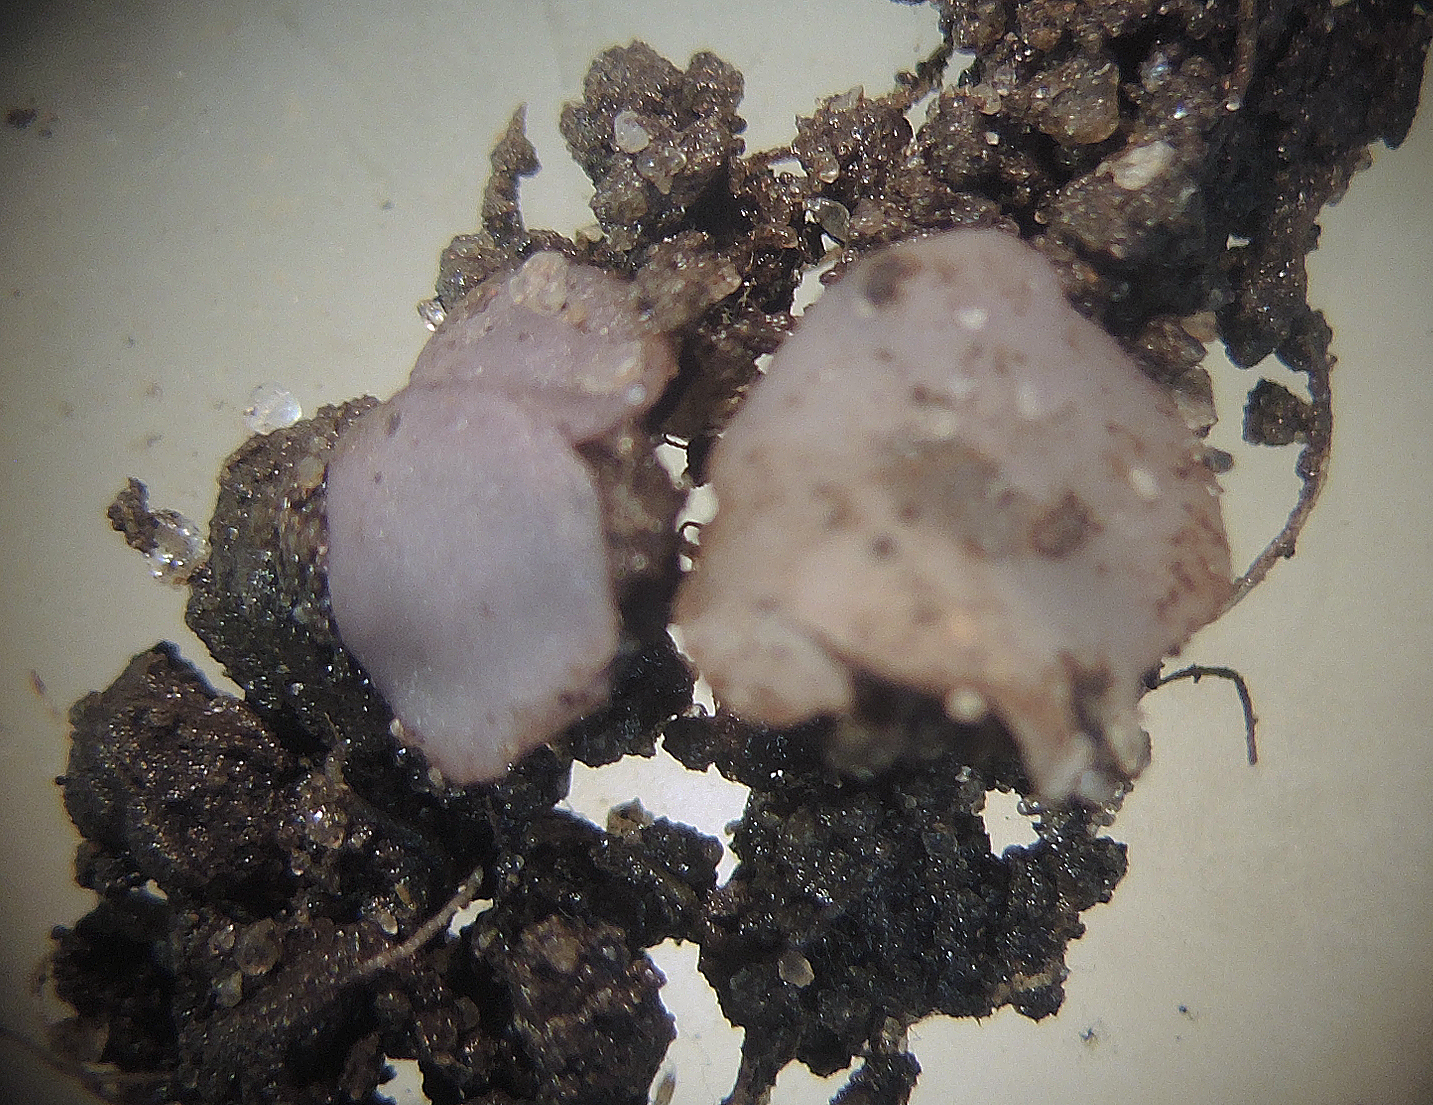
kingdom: Fungi
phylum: Ascomycota
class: Pezizomycetes
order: Pezizales
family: Pezizaceae
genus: Marcelleina
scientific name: Marcelleina rickii
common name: kamsporet violbæger
